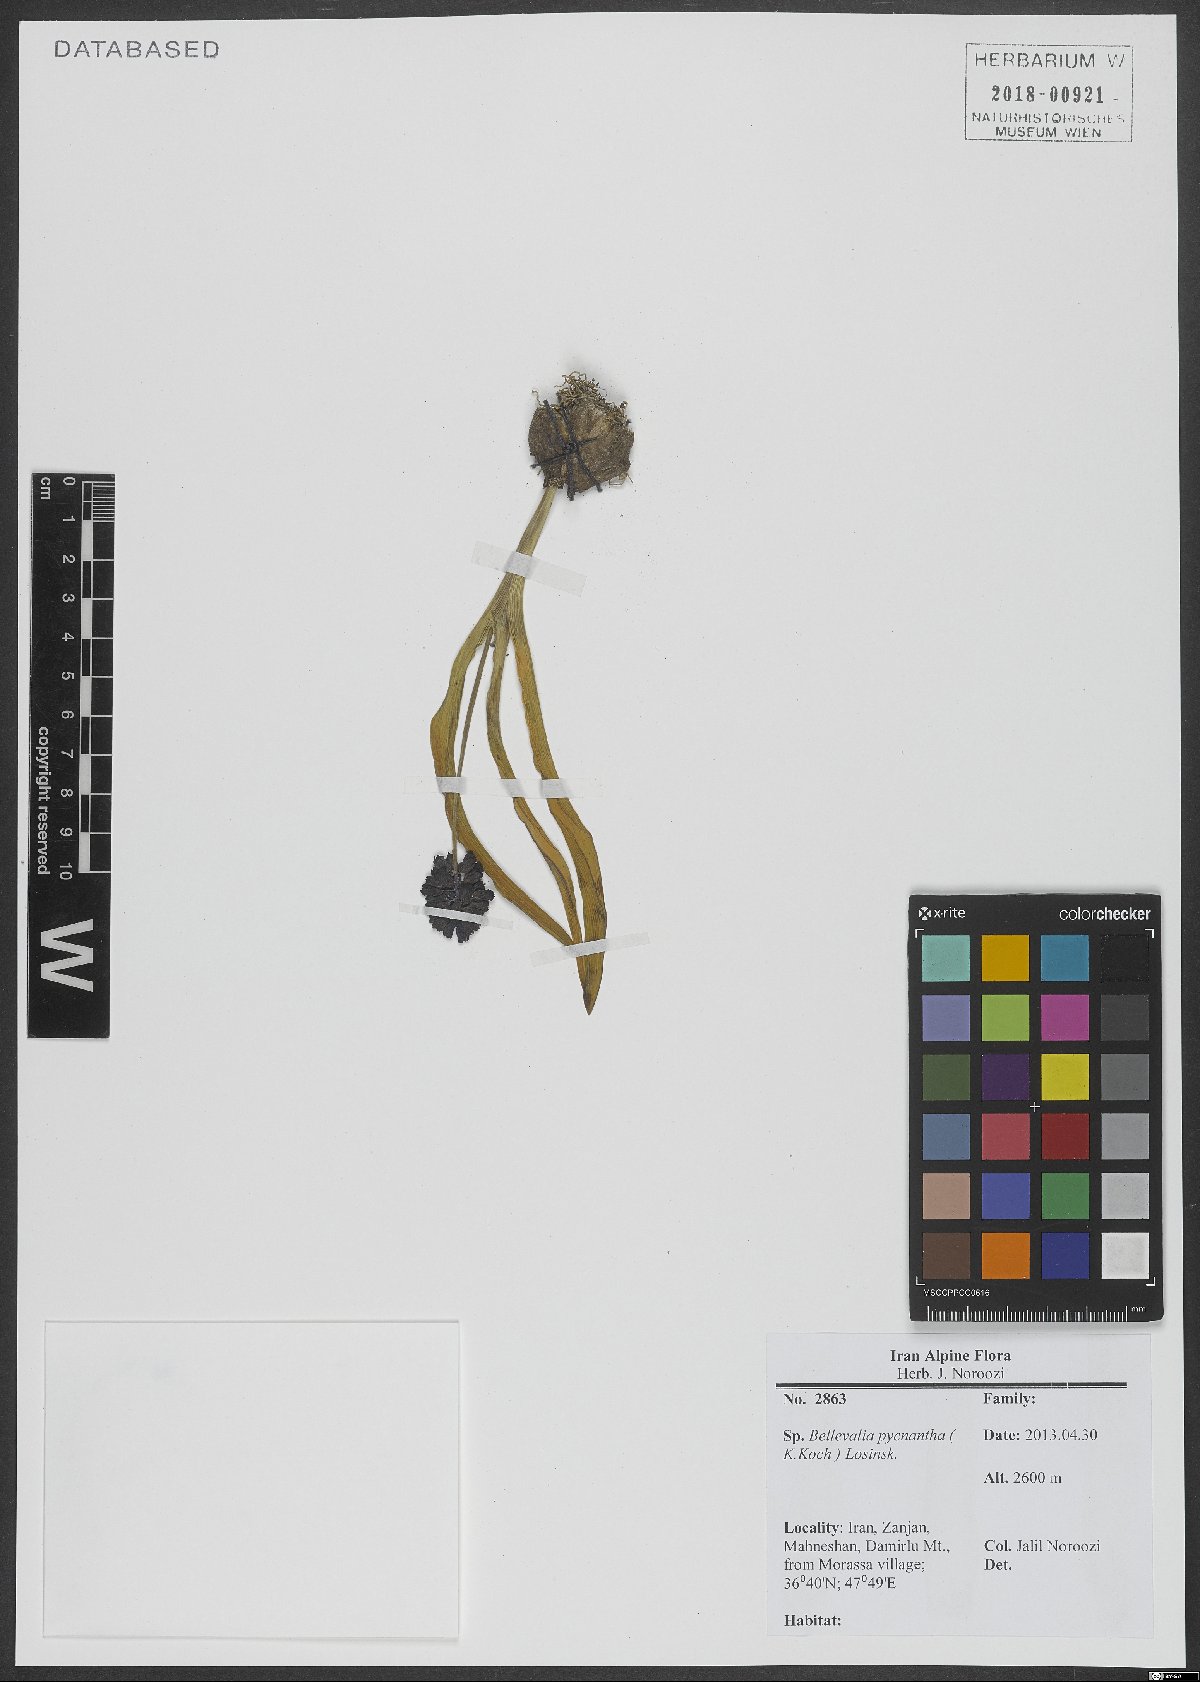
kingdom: Plantae
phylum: Tracheophyta
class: Liliopsida
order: Asparagales
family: Asparagaceae
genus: Bellevalia
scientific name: Bellevalia paradoxa
